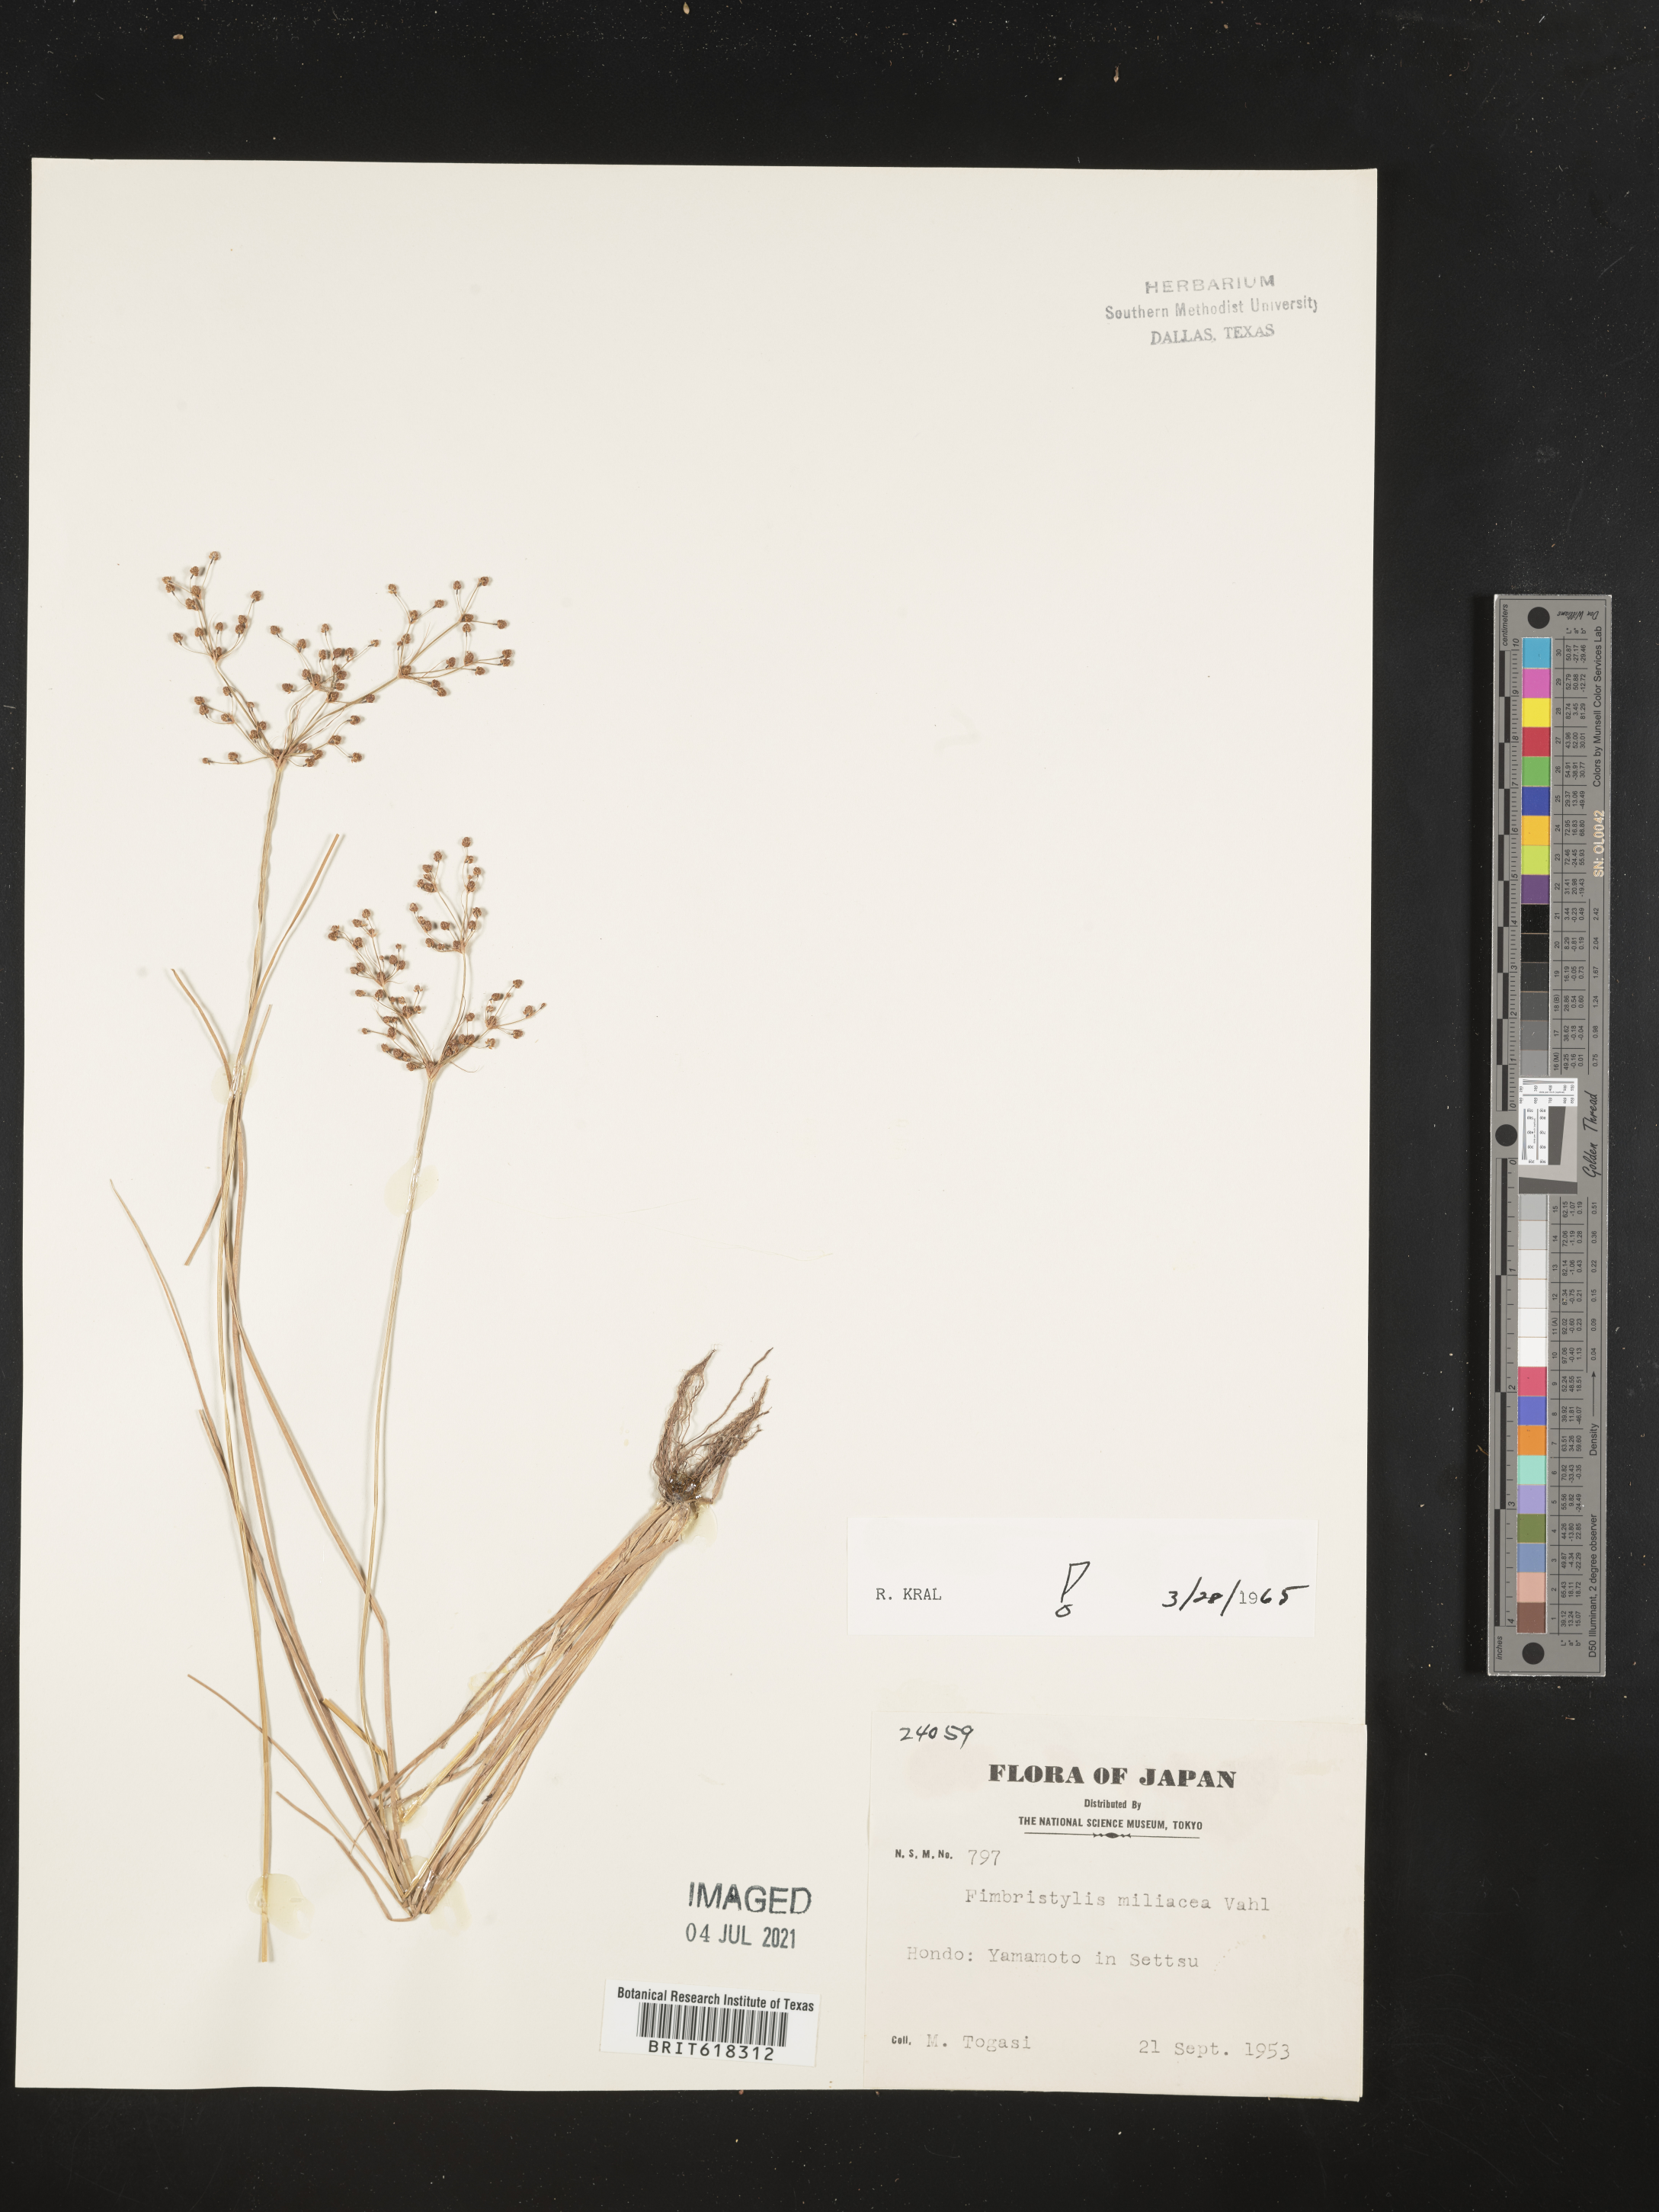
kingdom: Plantae
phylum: Tracheophyta
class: Liliopsida
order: Poales
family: Cyperaceae
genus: Fimbristylis
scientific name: Fimbristylis quinquangularis
